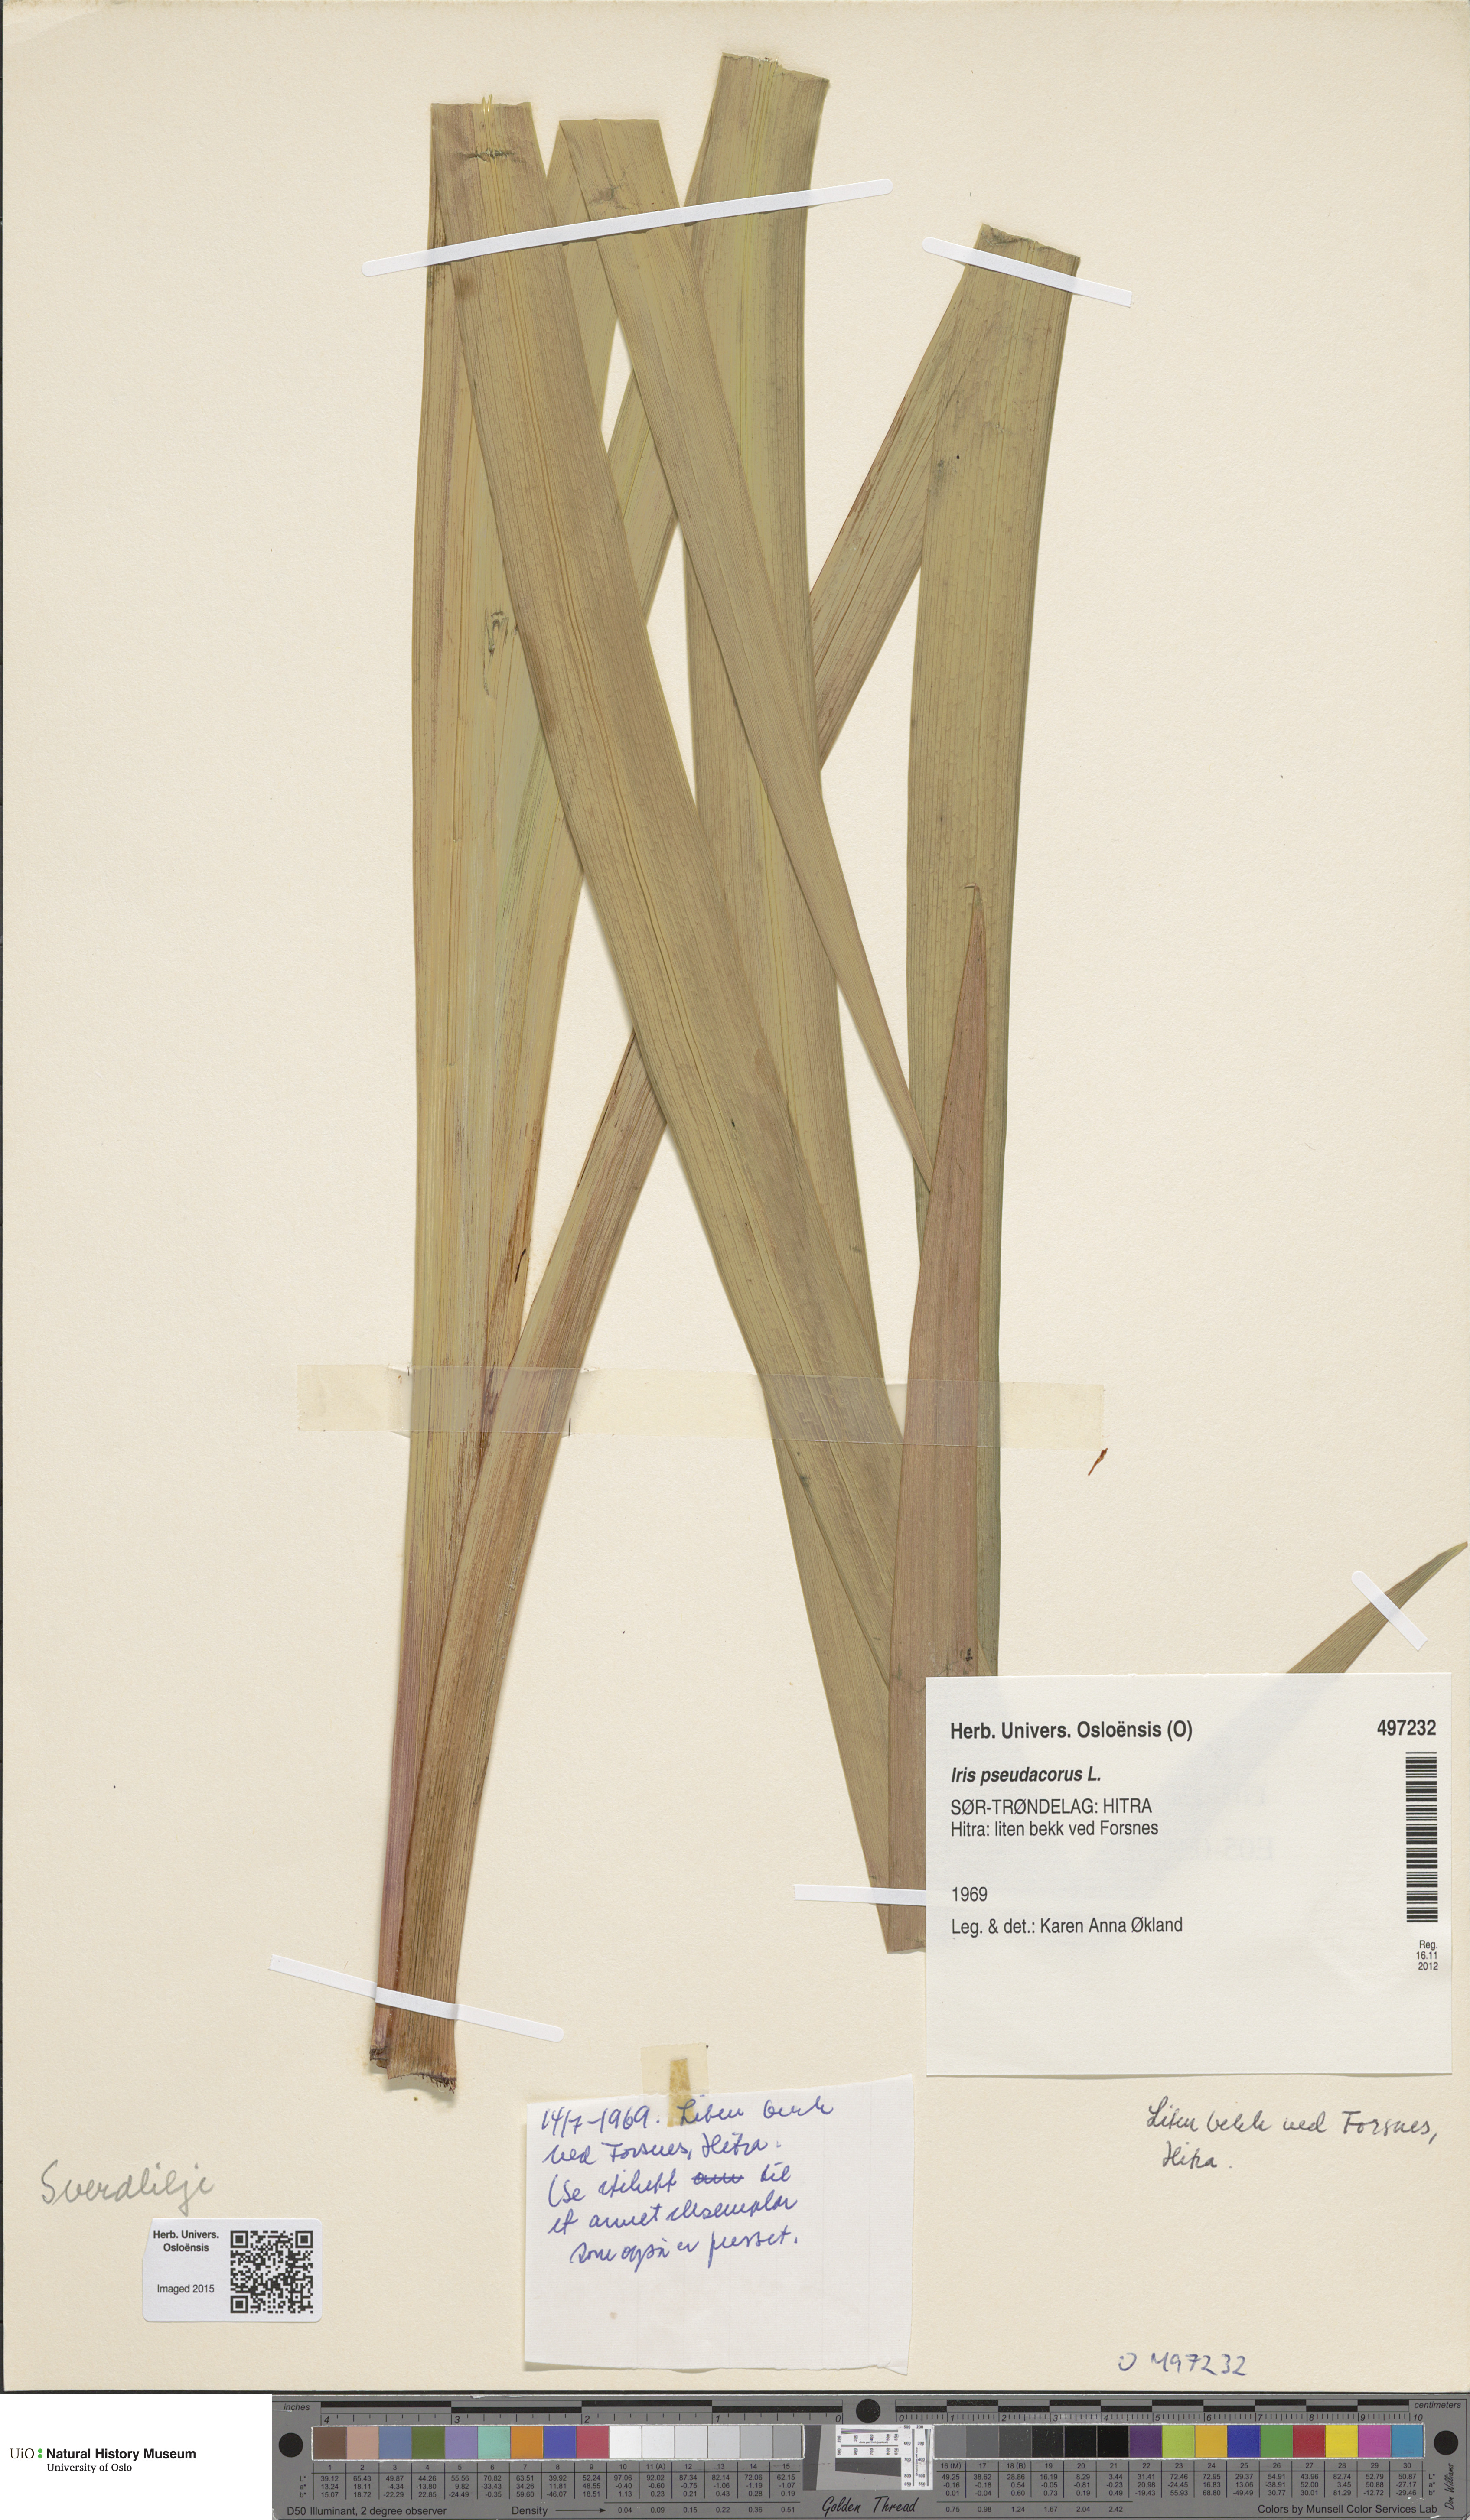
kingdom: Plantae
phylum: Tracheophyta
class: Liliopsida
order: Asparagales
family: Iridaceae
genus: Iris
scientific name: Iris pseudacorus
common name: Yellow flag
